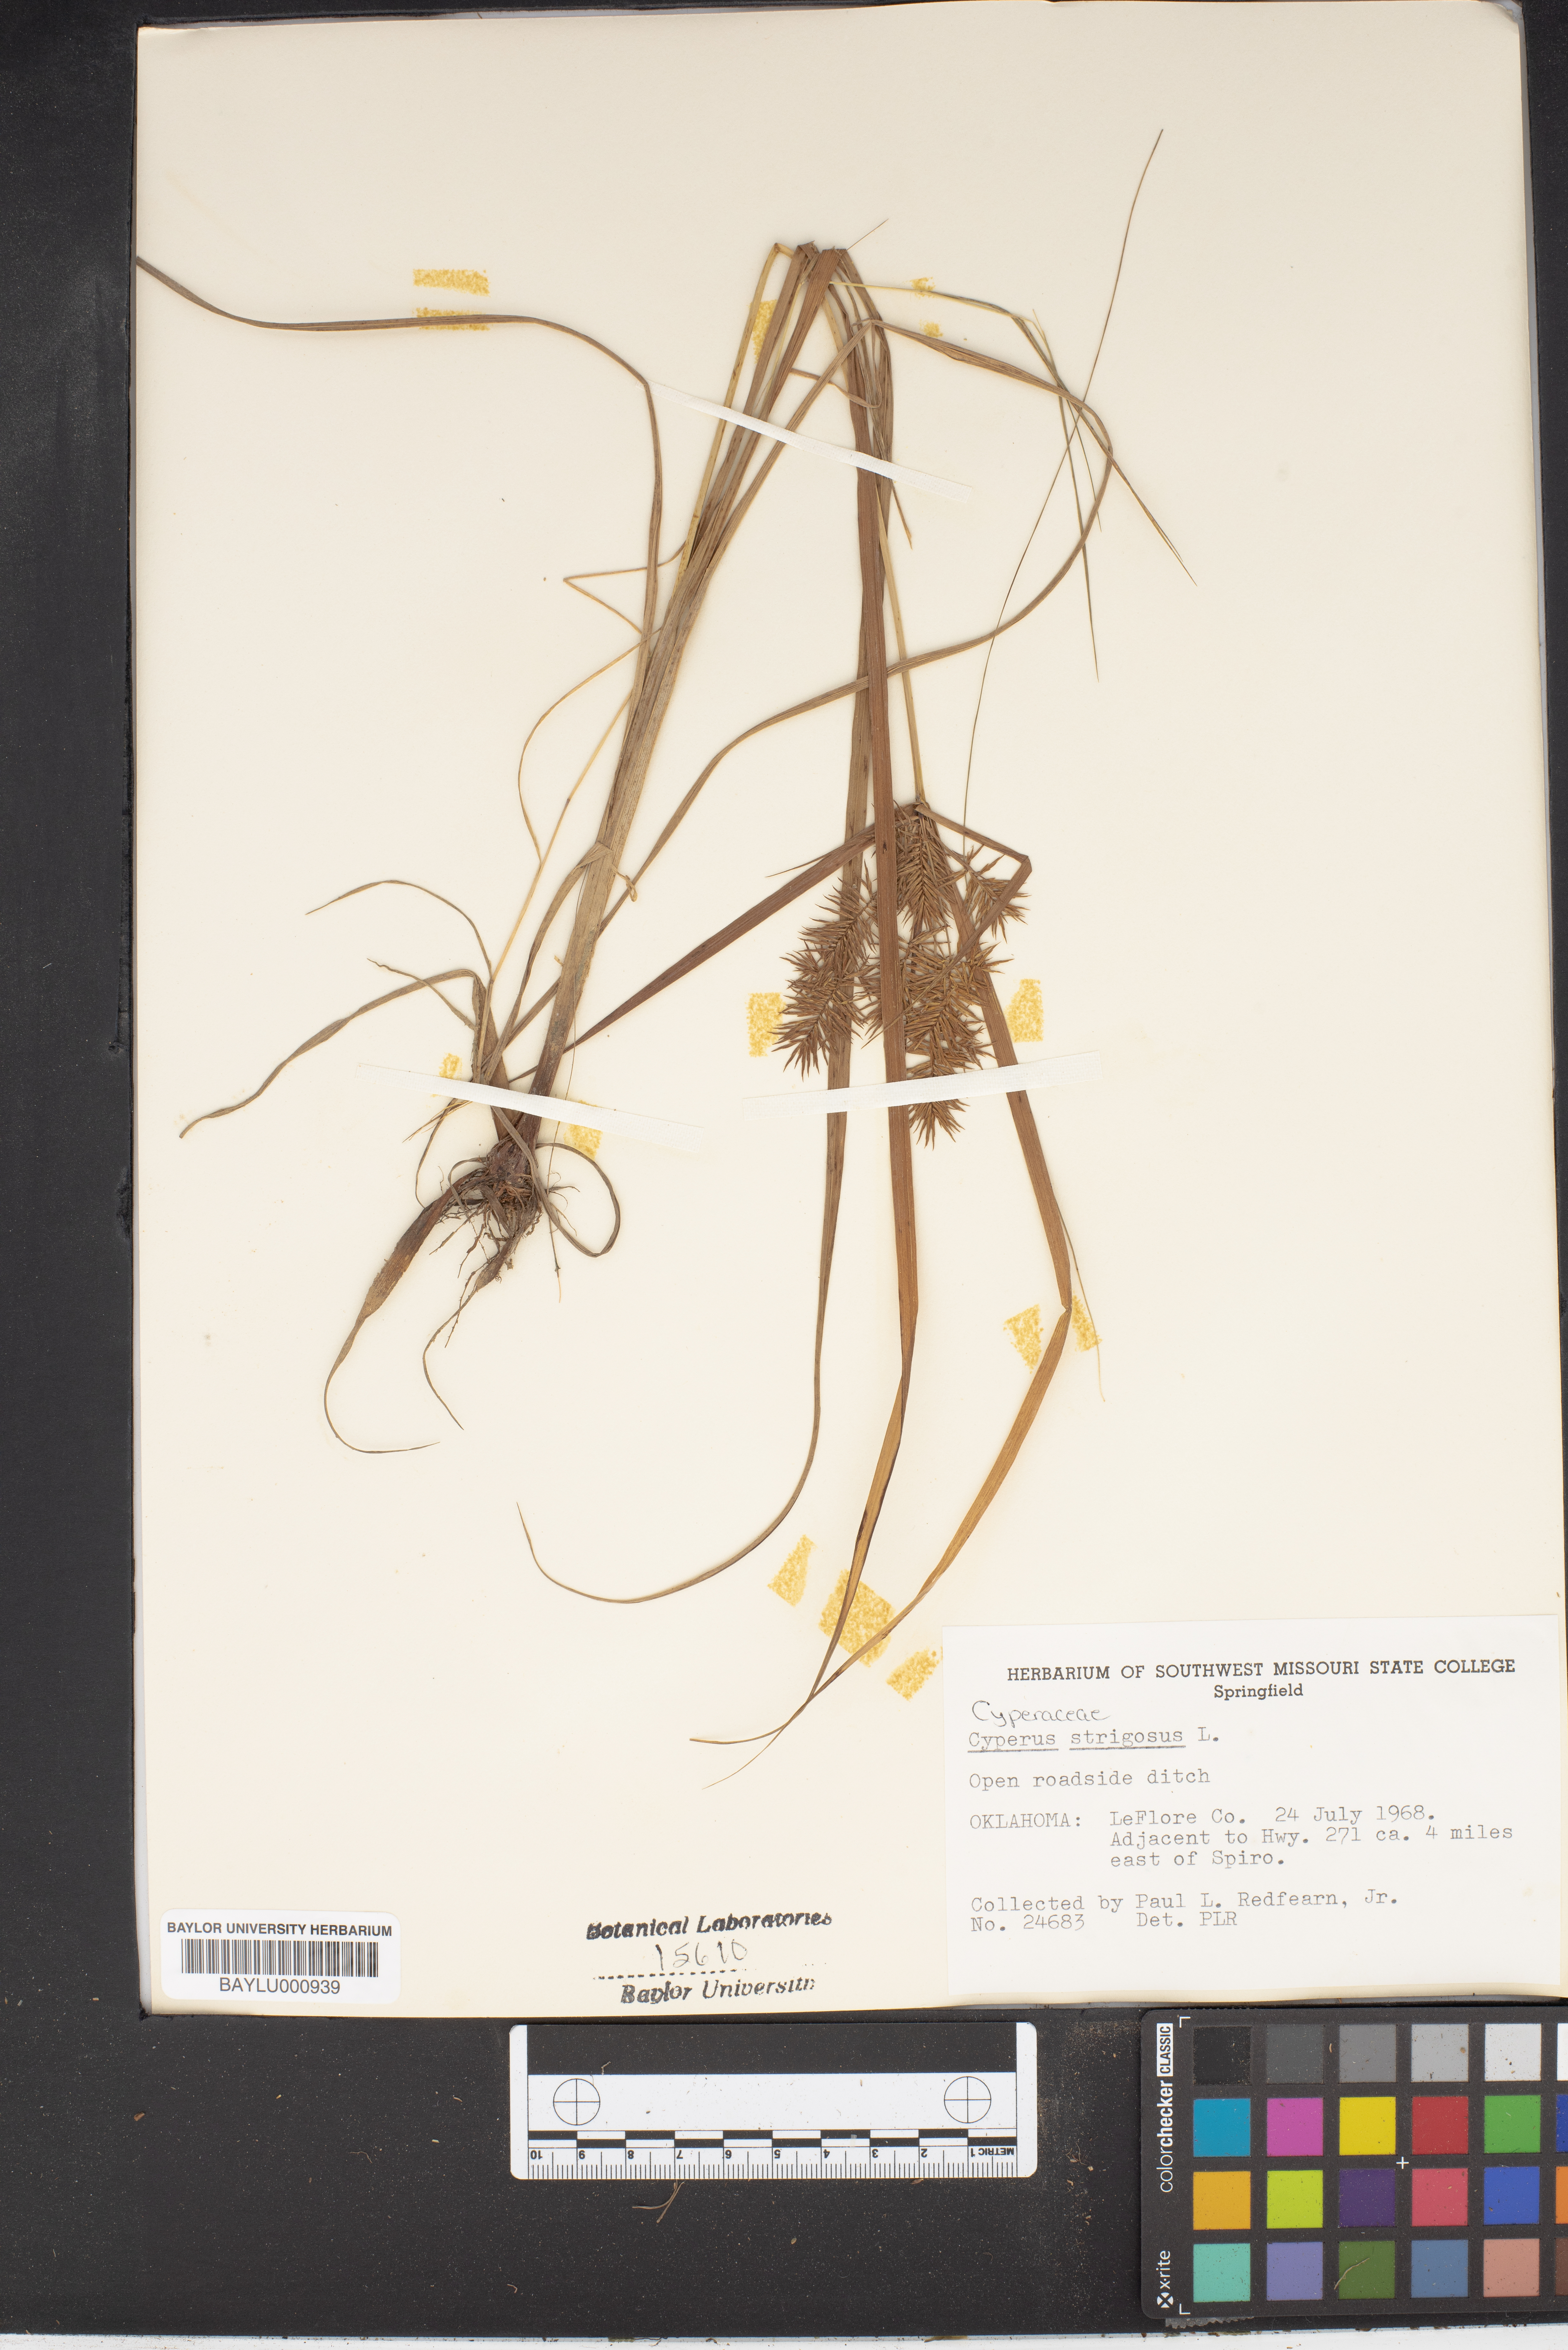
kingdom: Plantae
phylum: Tracheophyta
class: Liliopsida
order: Poales
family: Cyperaceae
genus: Cyperus
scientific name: Cyperus strigosus
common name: False nutsedge
